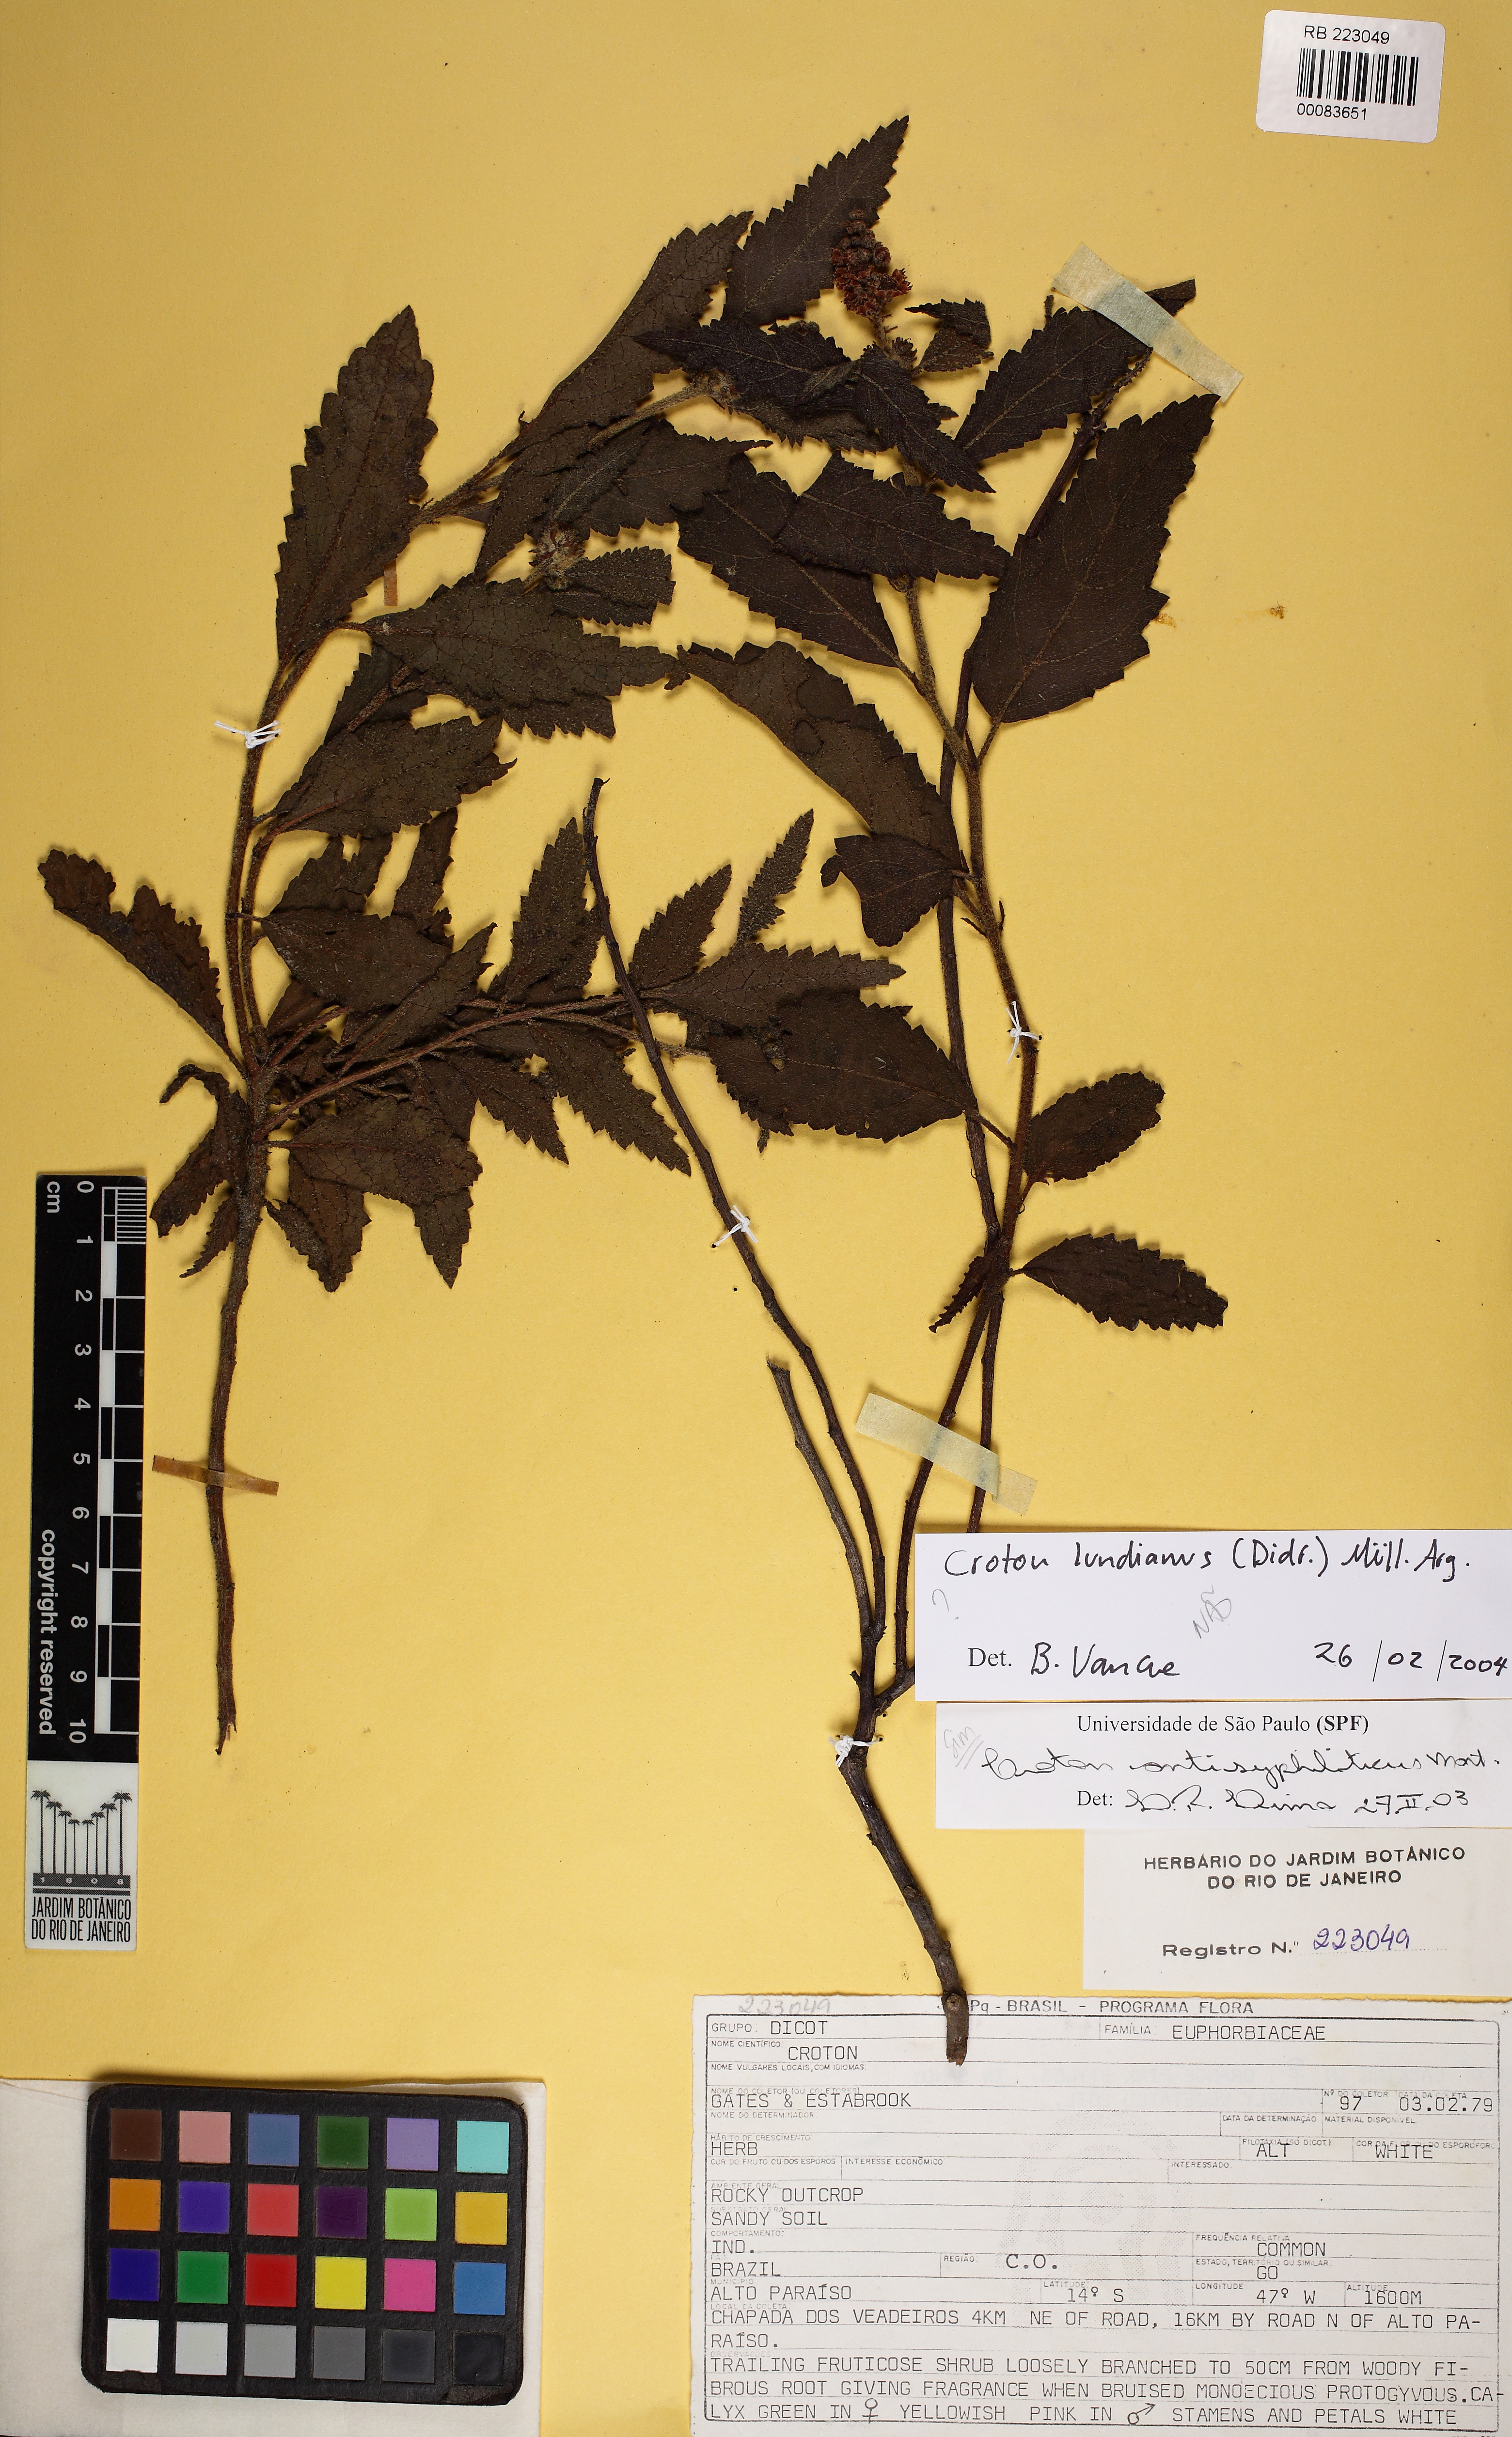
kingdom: Plantae
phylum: Tracheophyta
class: Magnoliopsida
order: Malpighiales
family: Euphorbiaceae
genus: Croton
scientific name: Croton lundianus
